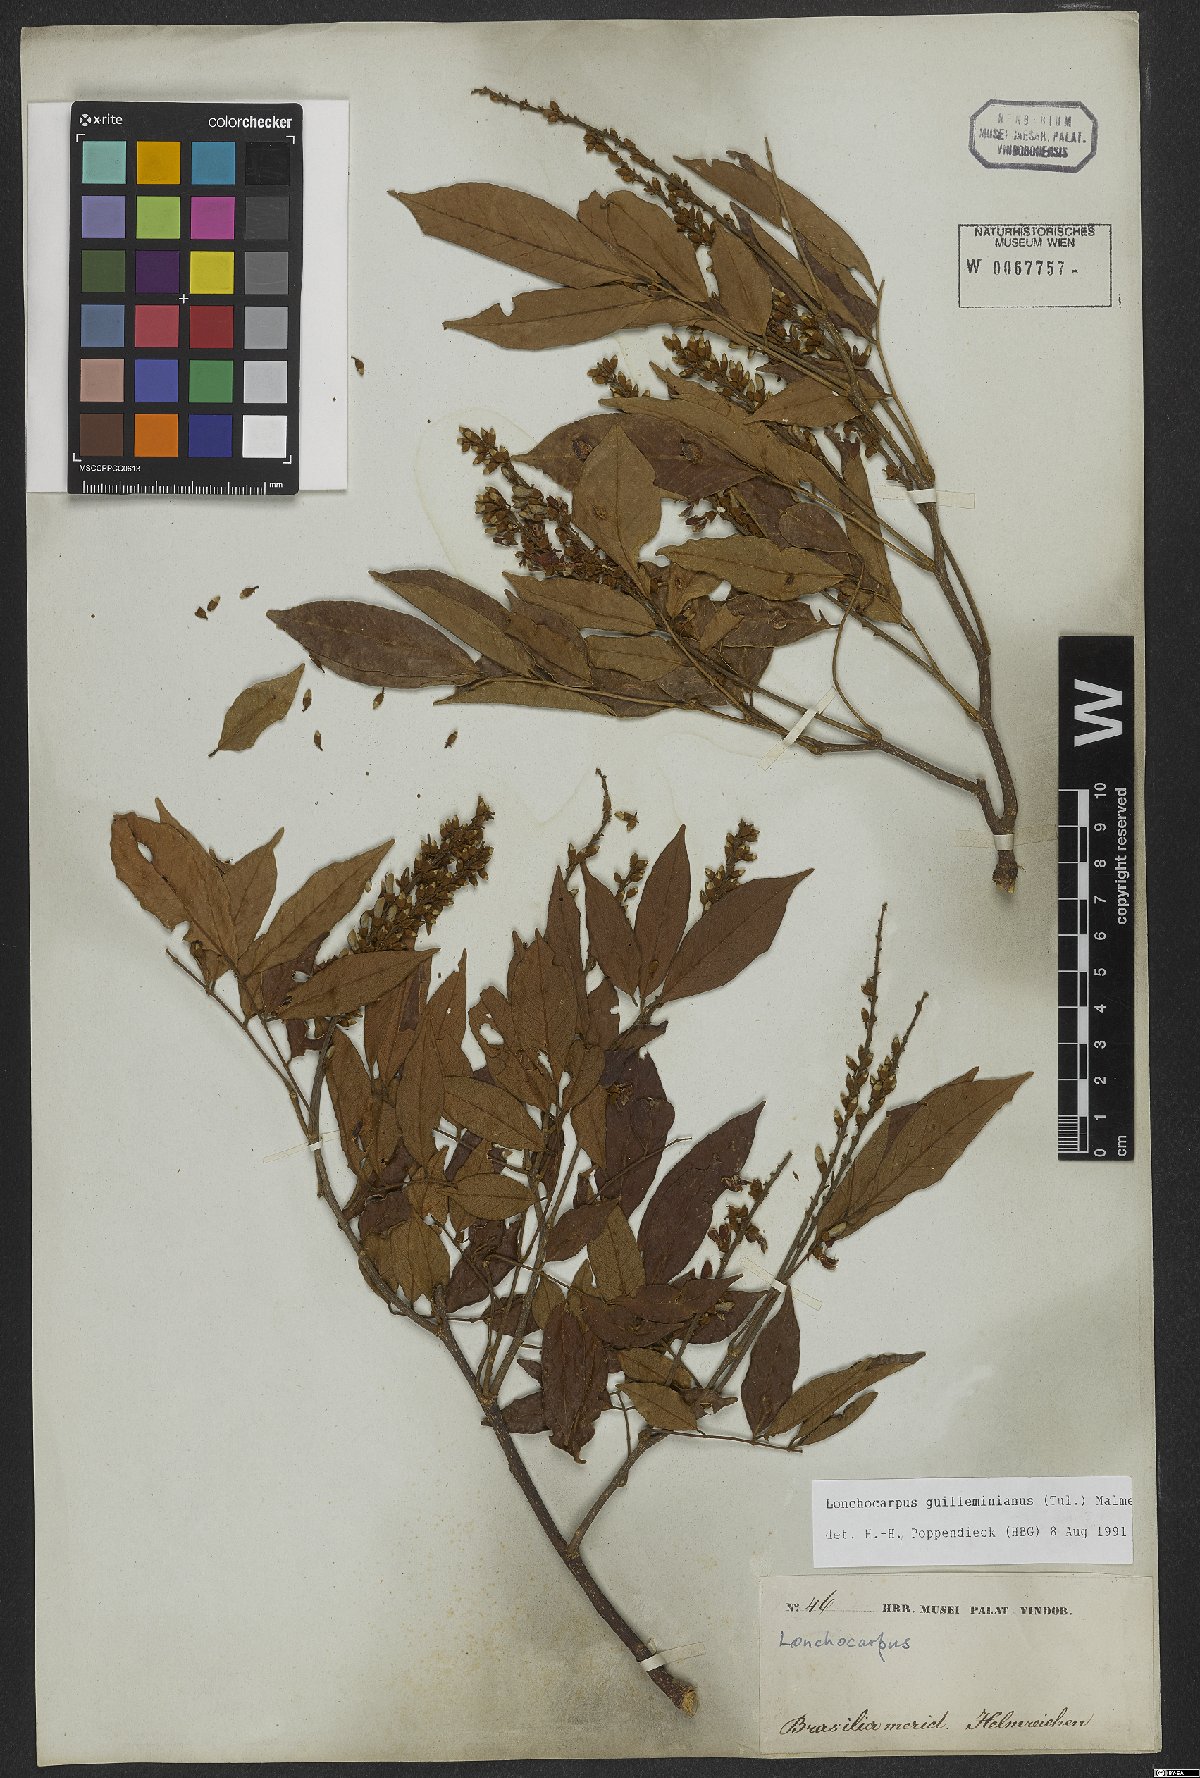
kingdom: Plantae
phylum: Tracheophyta
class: Magnoliopsida
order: Fabales
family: Fabaceae
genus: Lonchocarpus
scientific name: Lonchocarpus cultratus
